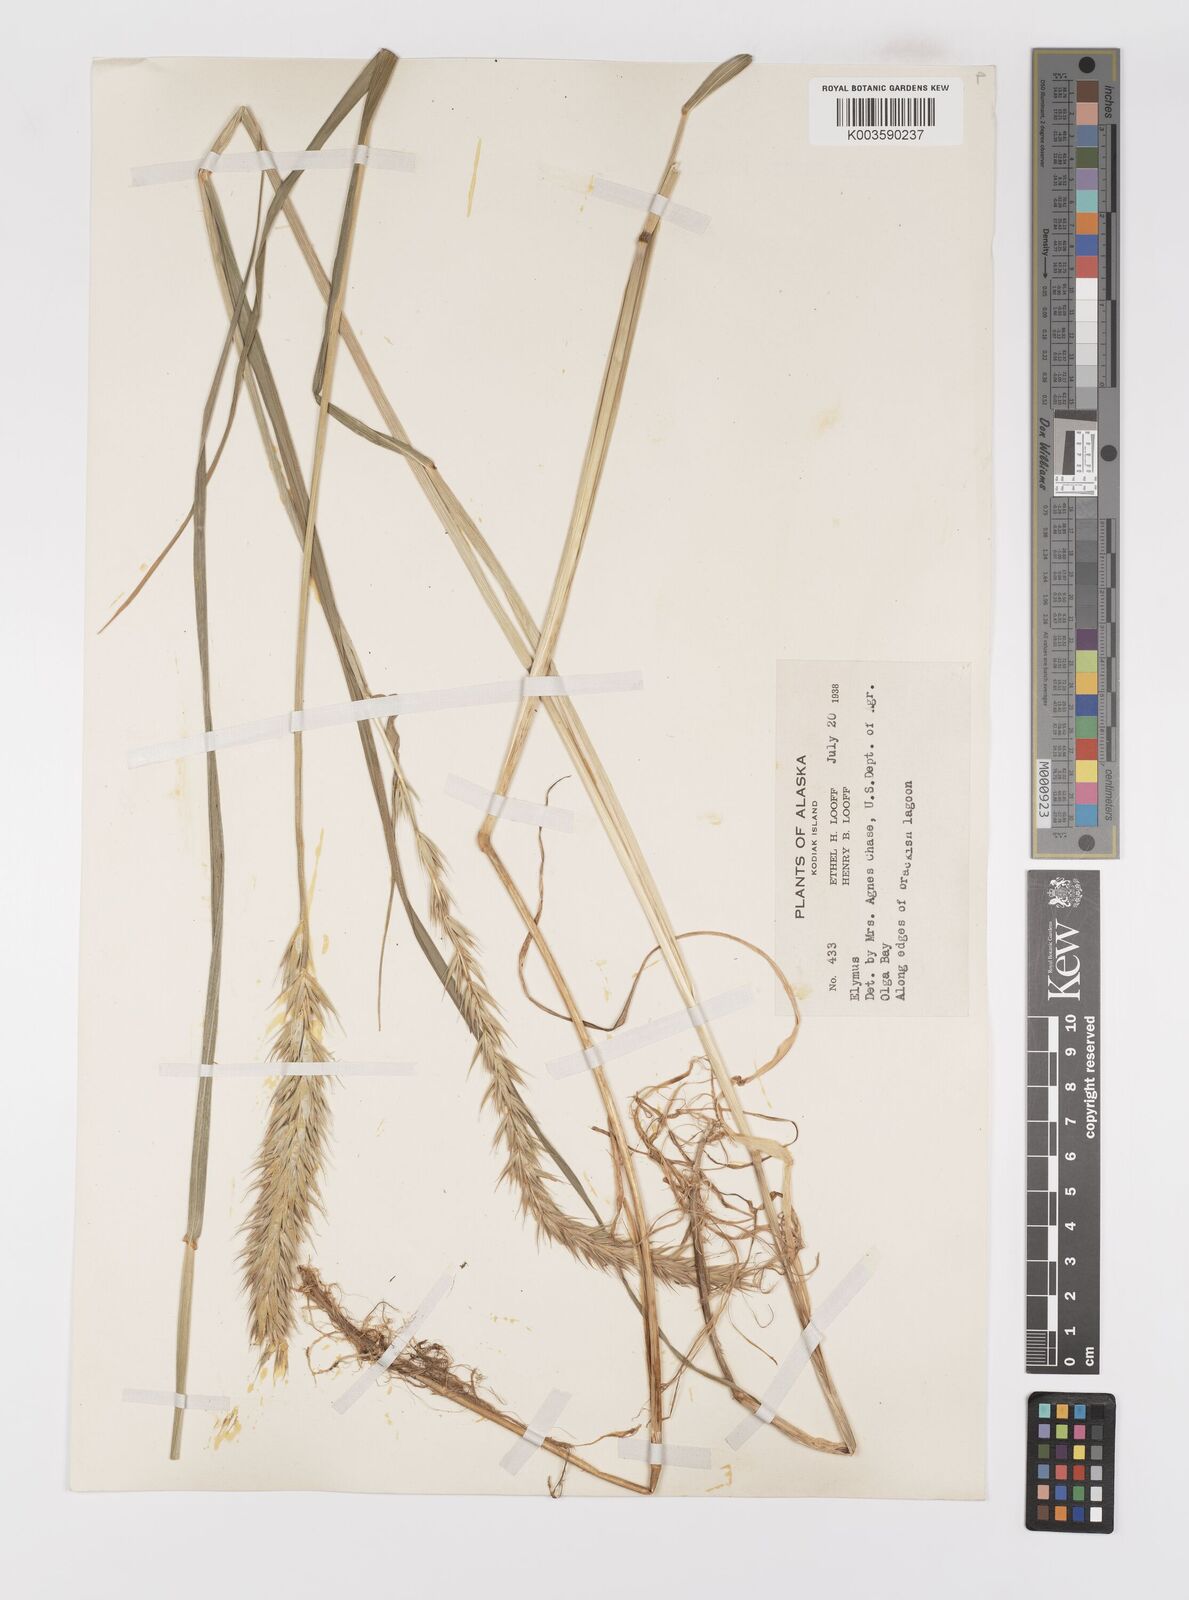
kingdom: Plantae
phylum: Tracheophyta
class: Liliopsida
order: Poales
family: Poaceae
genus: Elymus
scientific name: Elymus
